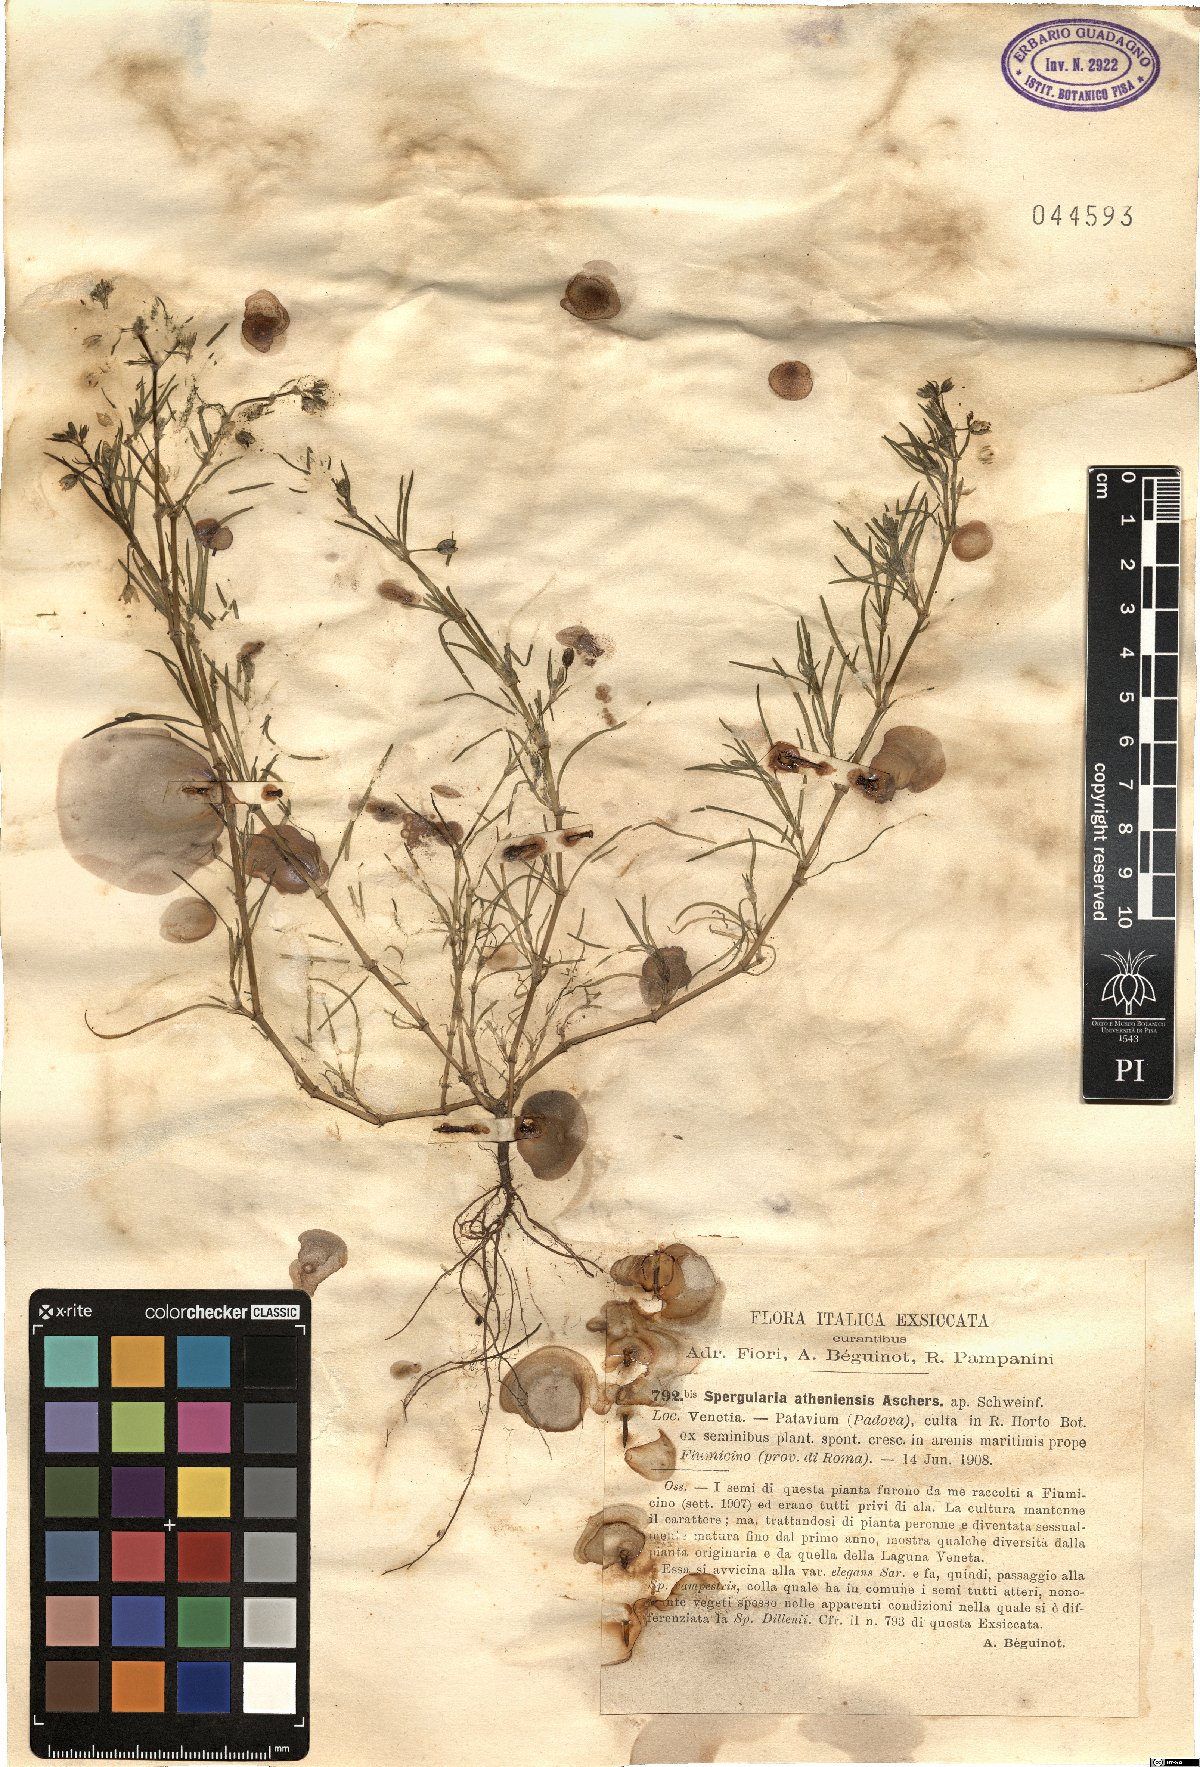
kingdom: Plantae
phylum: Tracheophyta
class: Magnoliopsida
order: Caryophyllales
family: Caryophyllaceae
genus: Spergularia
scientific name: Spergularia bocconei
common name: Greek sea-spurrey
